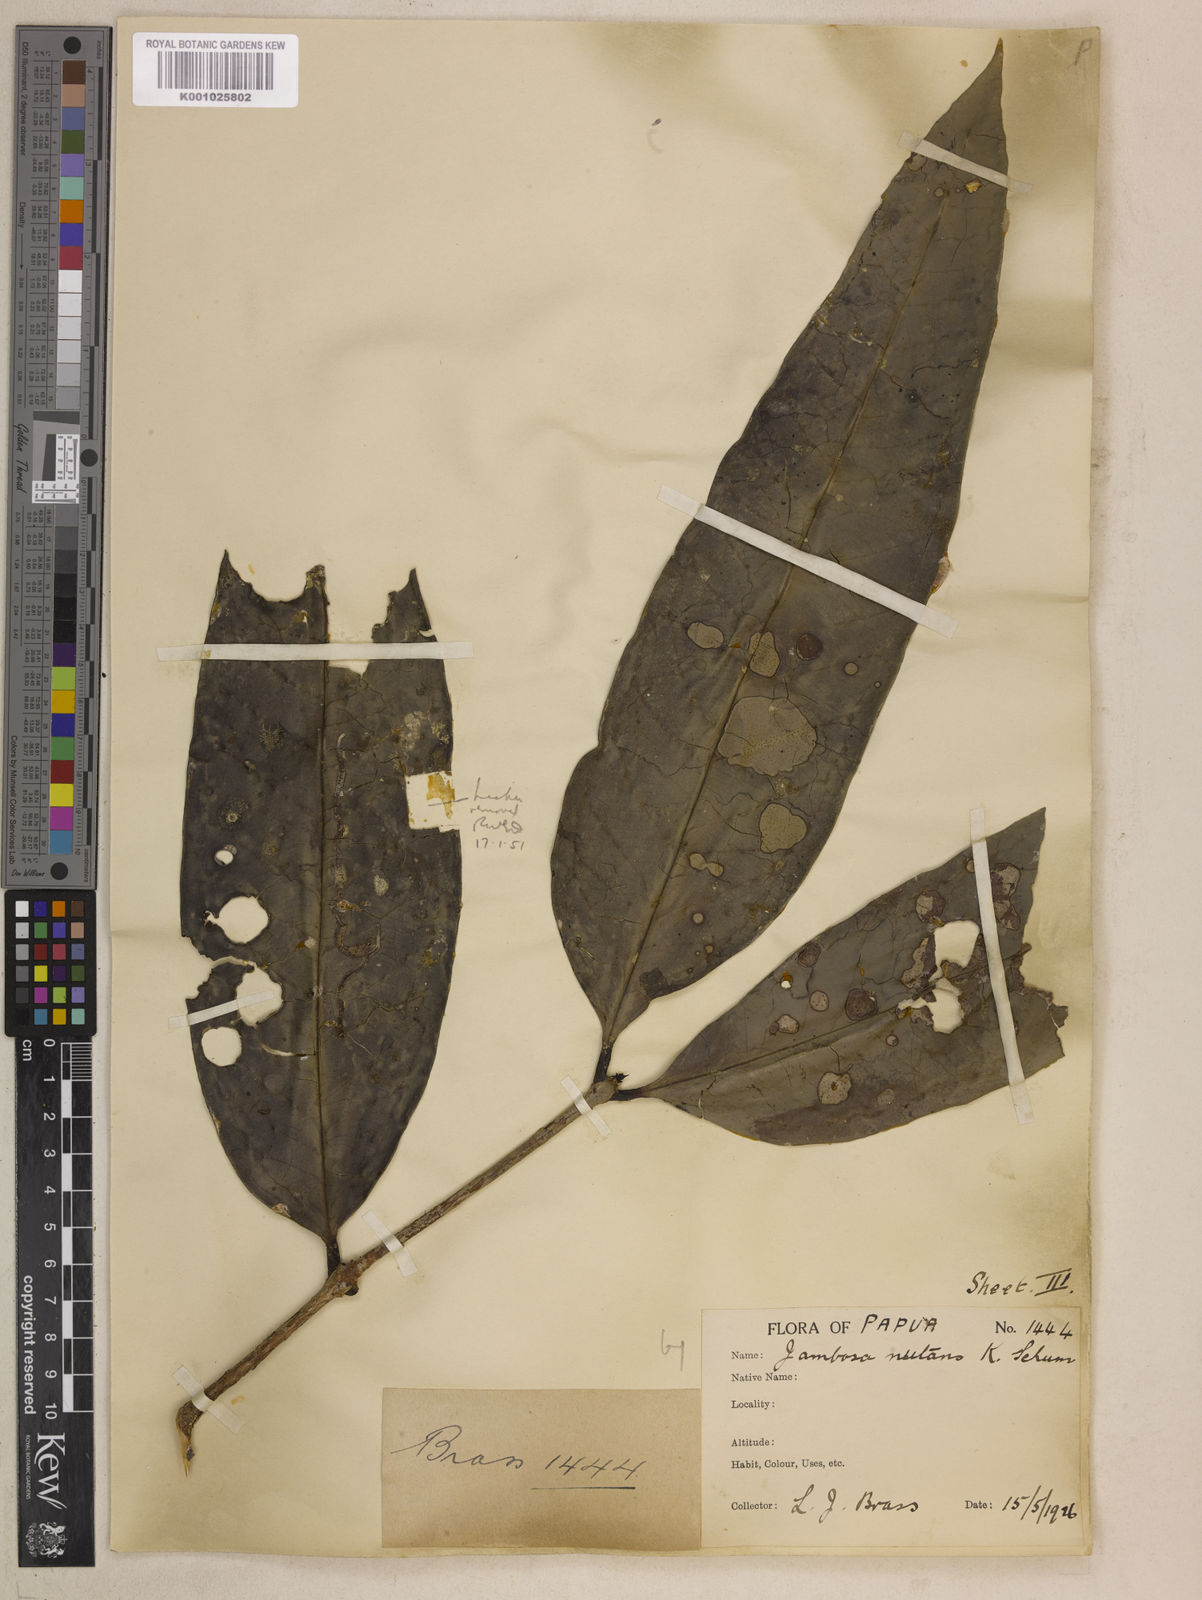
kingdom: Plantae
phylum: Tracheophyta
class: Magnoliopsida
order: Myrtales
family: Myrtaceae
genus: Syzygium
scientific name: Syzygium nutans
